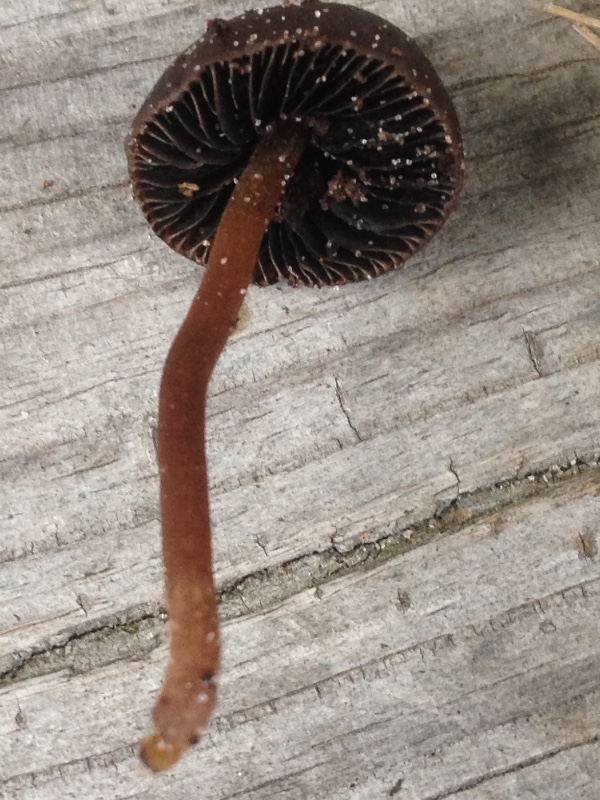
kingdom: Fungi
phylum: Basidiomycota
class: Agaricomycetes
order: Agaricales
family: Bolbitiaceae
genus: Panaeolus
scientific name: Panaeolus fimicola
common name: tidlig glanshat
